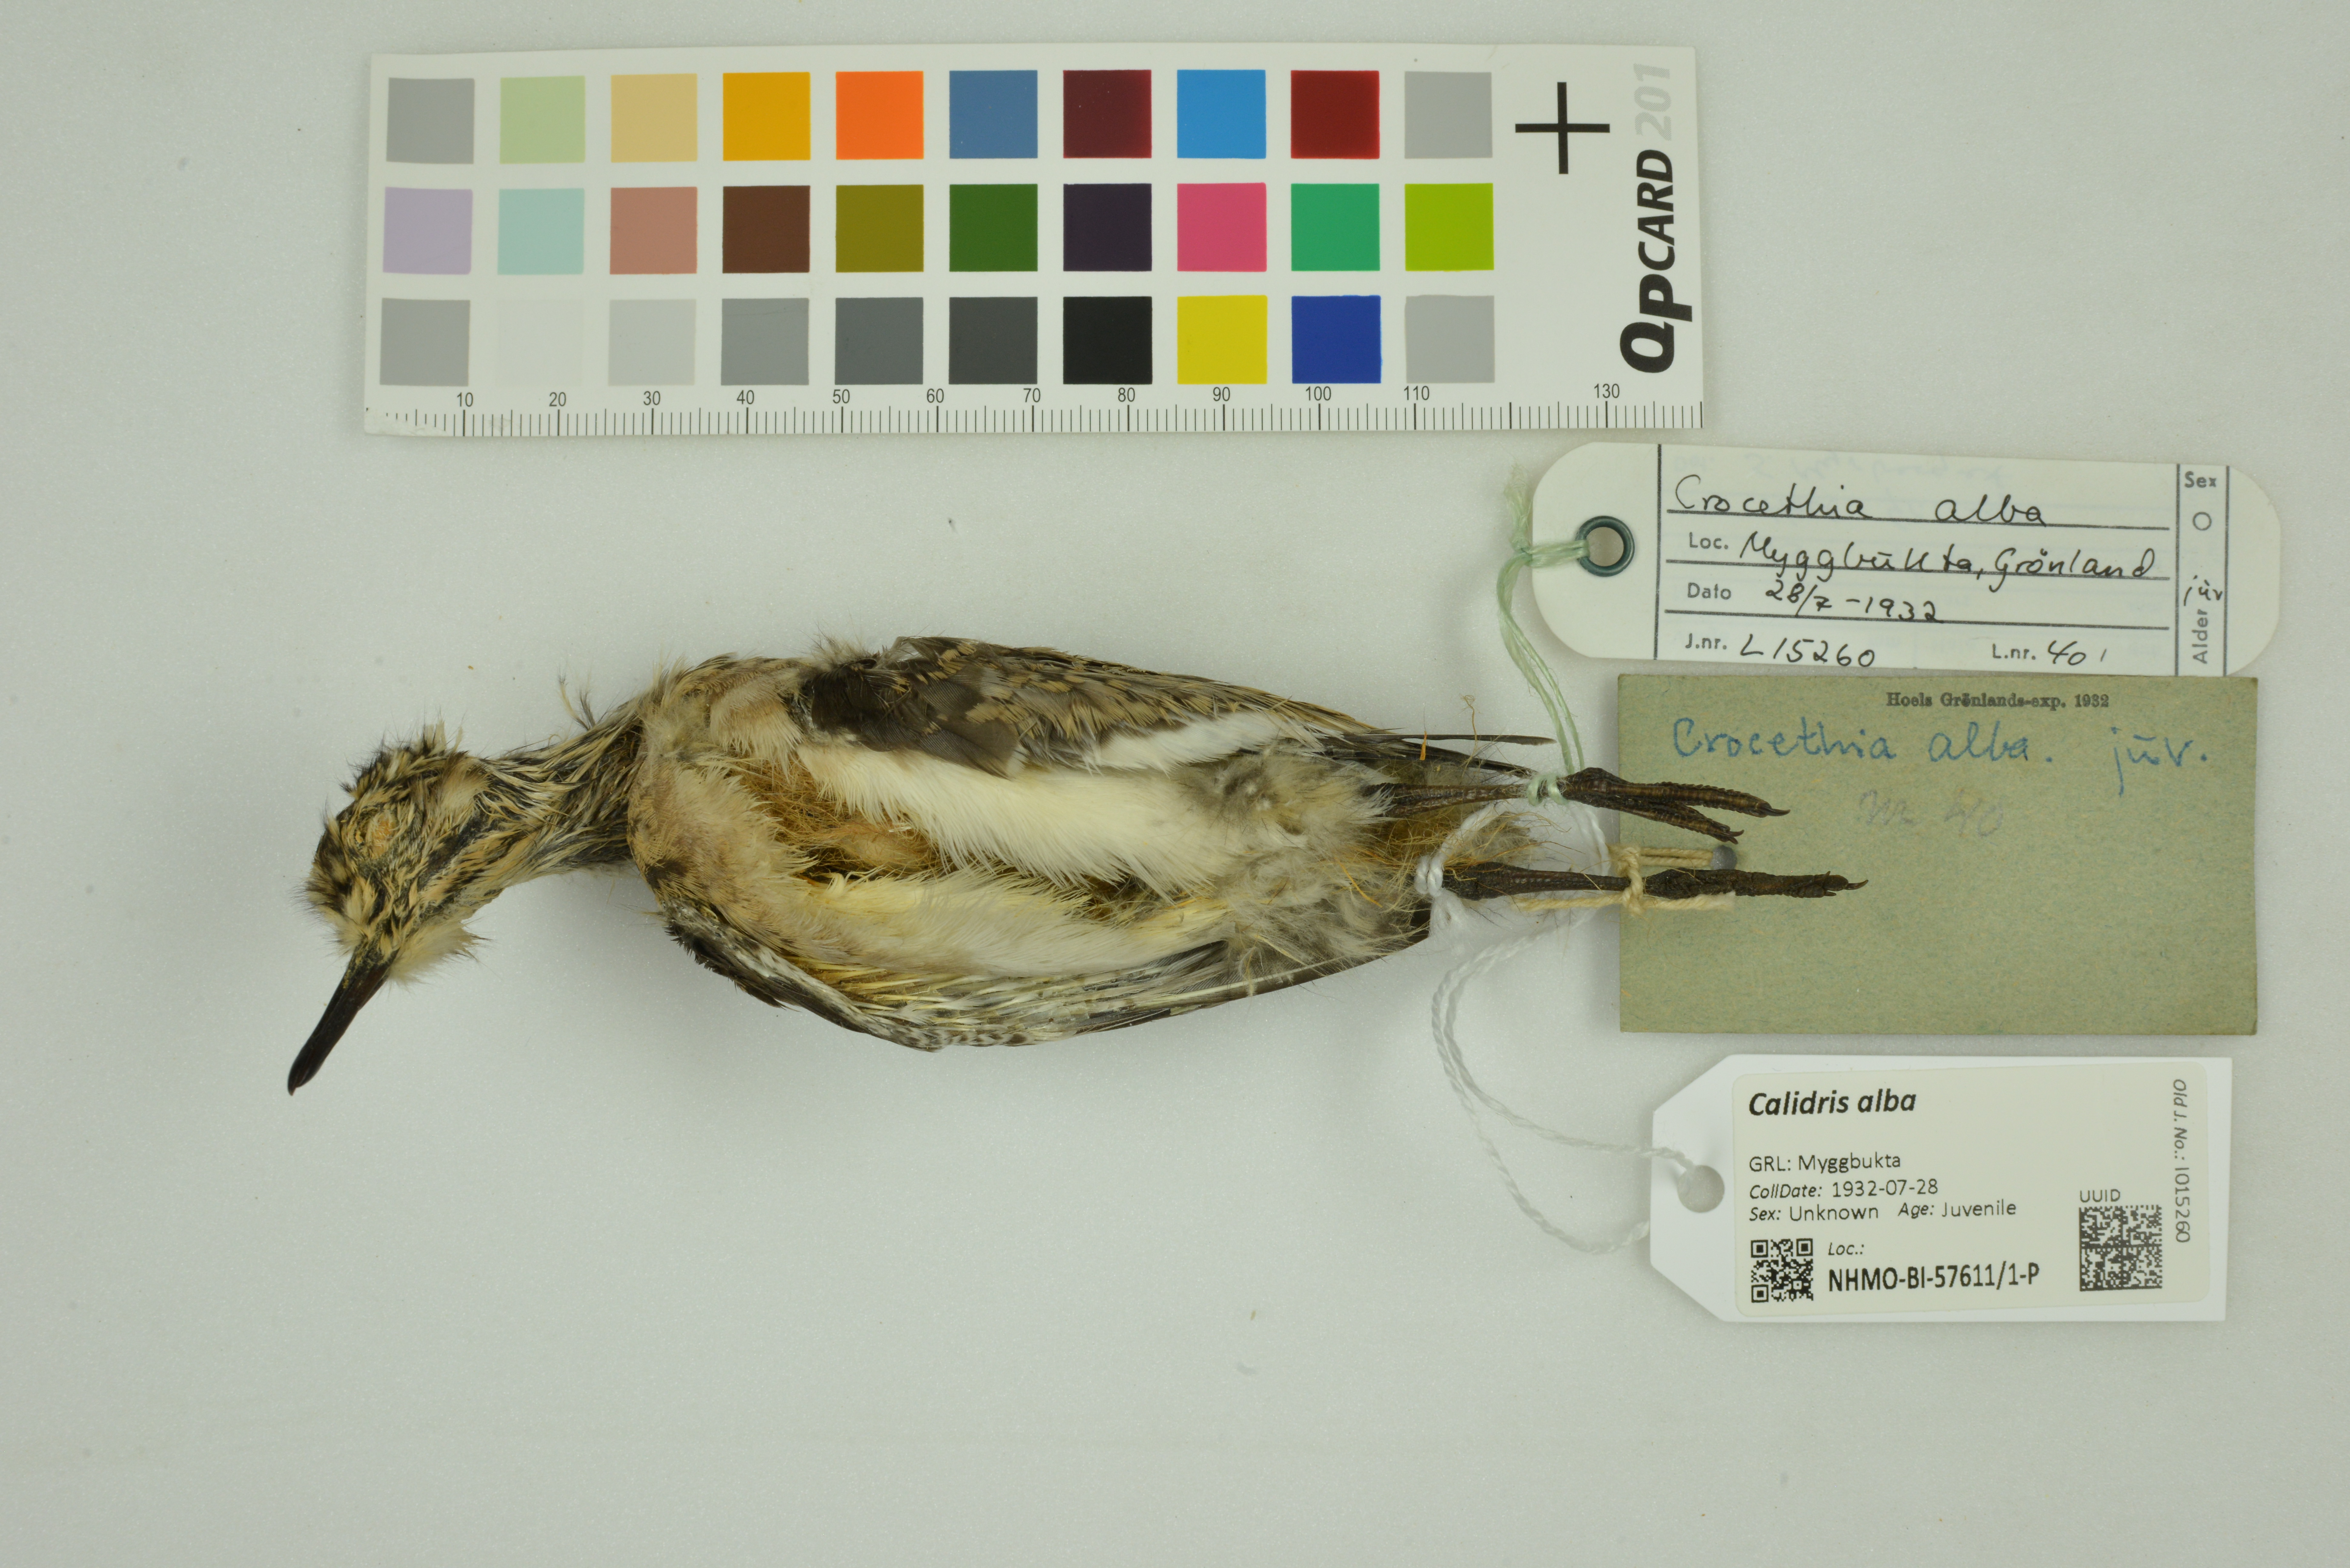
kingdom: Animalia
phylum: Chordata
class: Aves
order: Charadriiformes
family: Scolopacidae
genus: Calidris
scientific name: Calidris alba
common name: Sanderling
